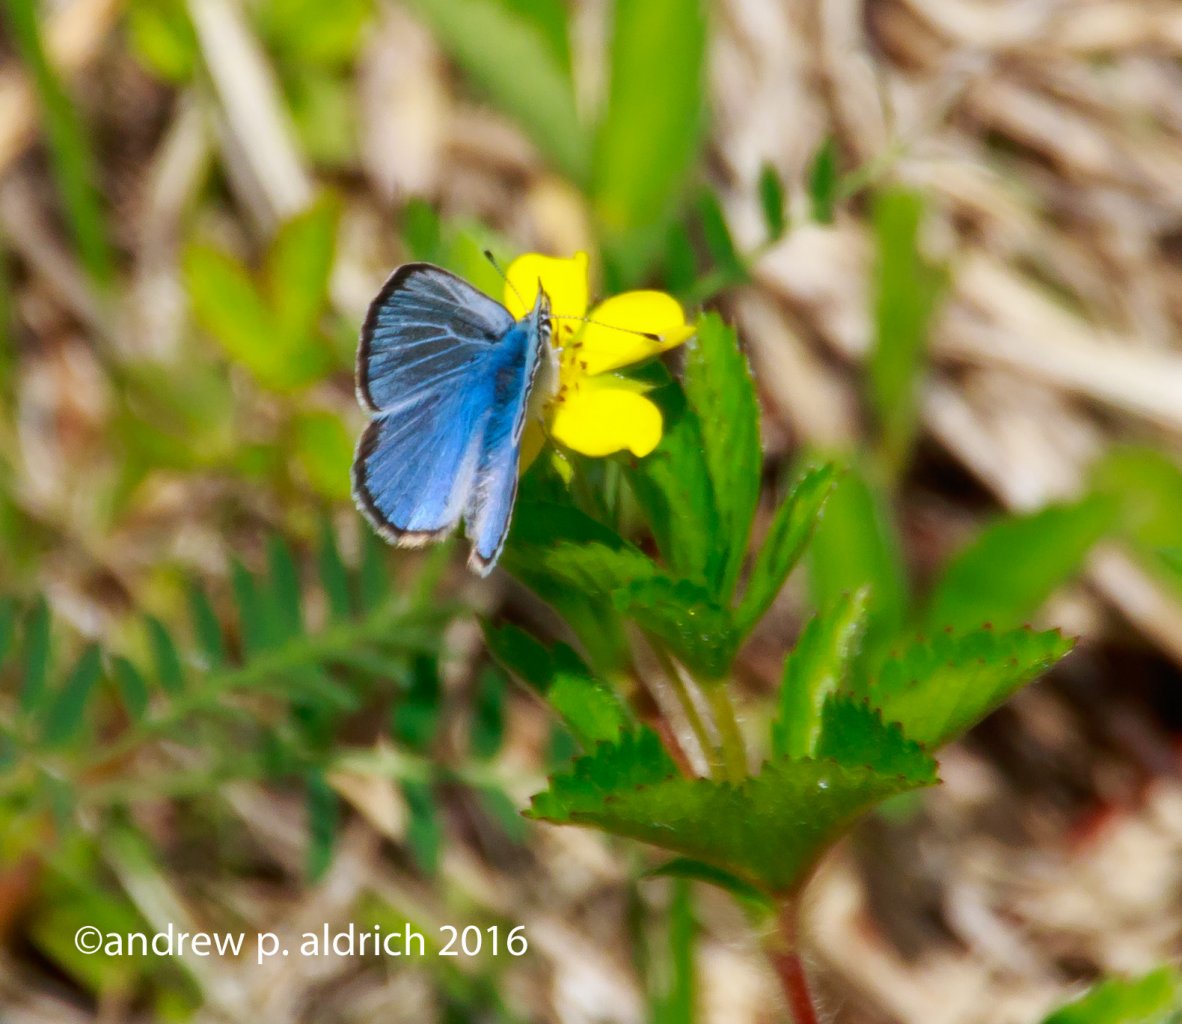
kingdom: Animalia
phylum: Arthropoda
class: Insecta
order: Lepidoptera
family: Lycaenidae
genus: Glaucopsyche
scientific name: Glaucopsyche lygdamus
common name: Silvery Blue
